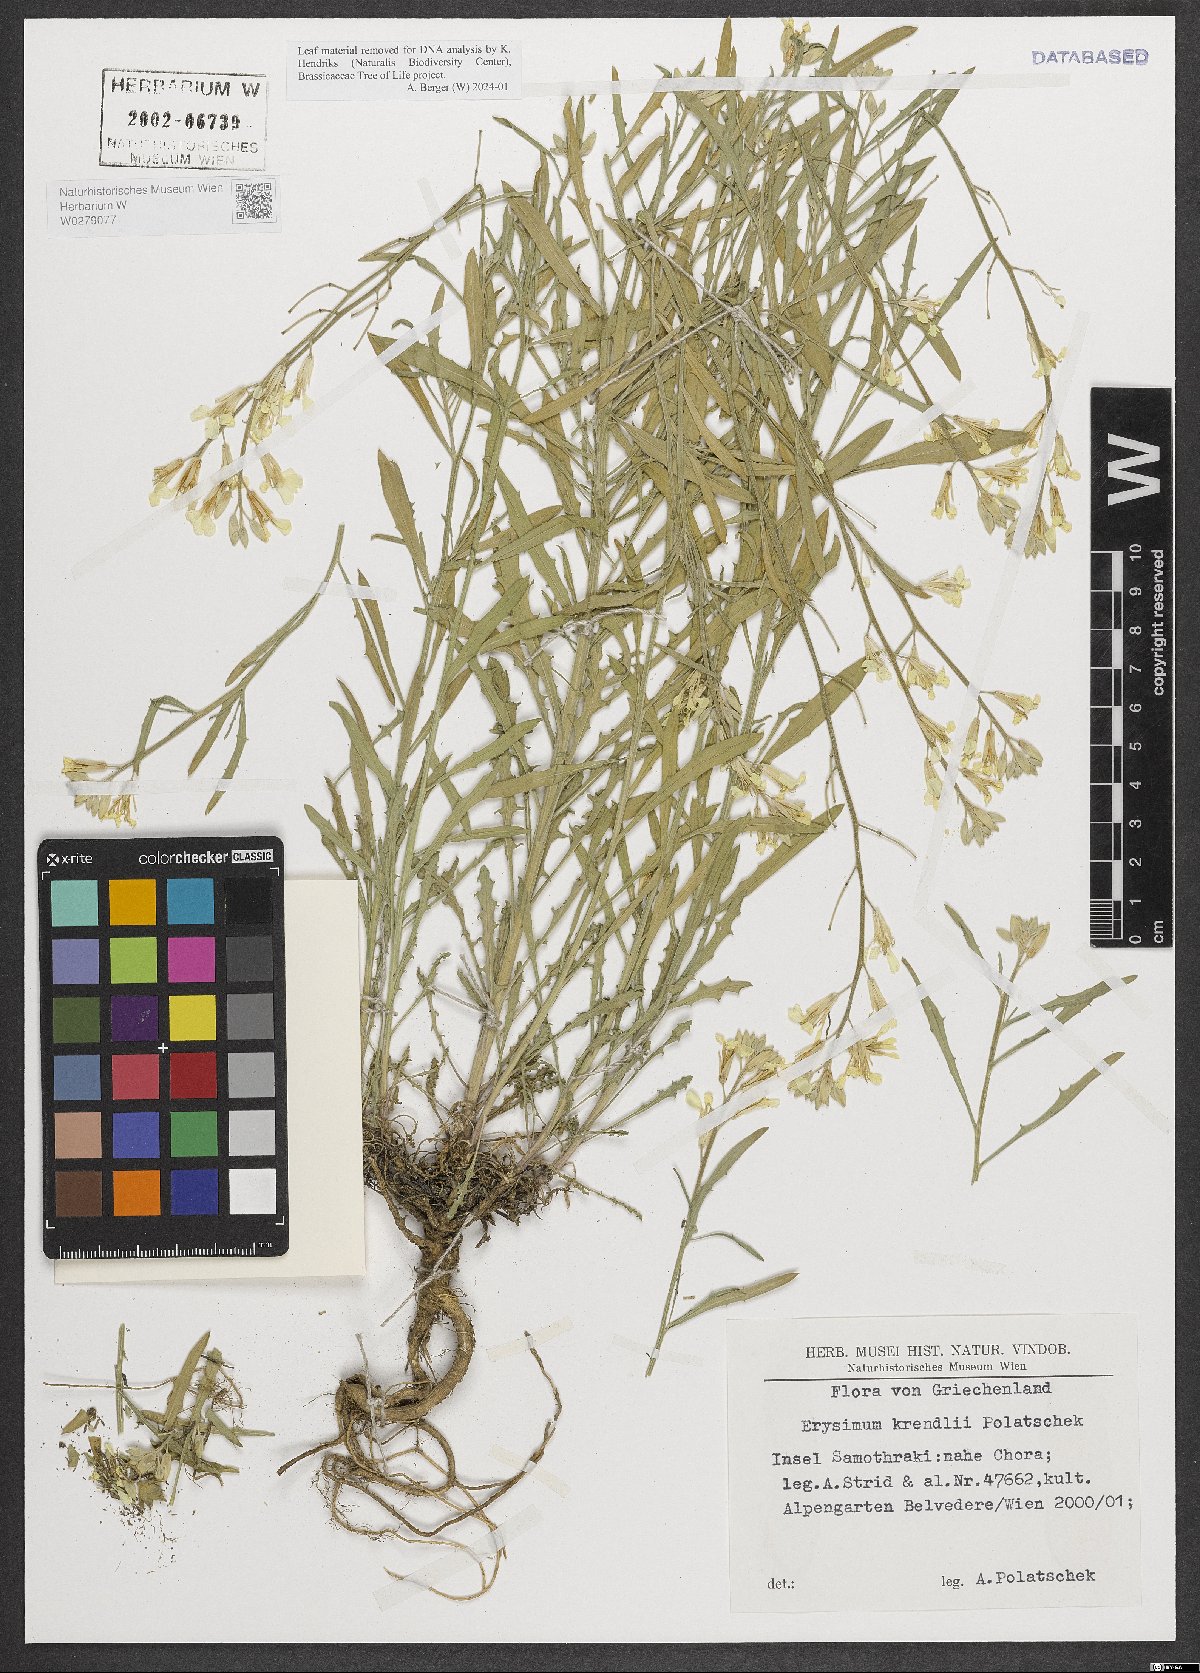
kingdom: Plantae
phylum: Tracheophyta
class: Magnoliopsida
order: Brassicales
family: Brassicaceae
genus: Erysimum
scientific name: Erysimum krendlii
